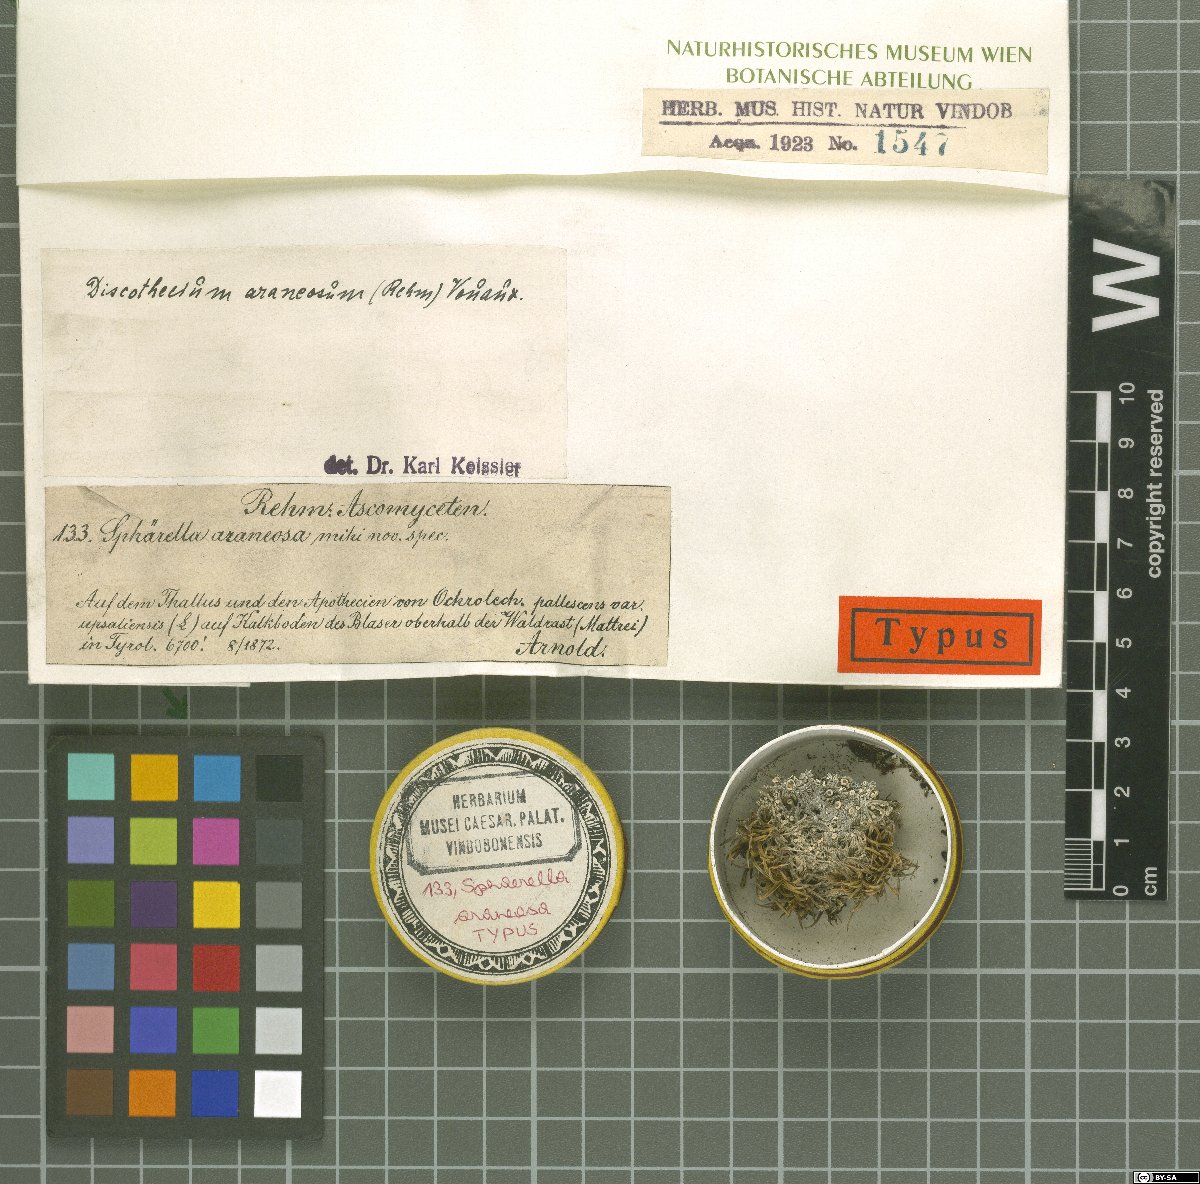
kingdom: Fungi
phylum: Ascomycota
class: Dothideomycetes
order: Mycosphaerellales
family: Mycosphaerellaceae
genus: Sphaerellothecium
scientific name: Sphaerellothecium araneosum
